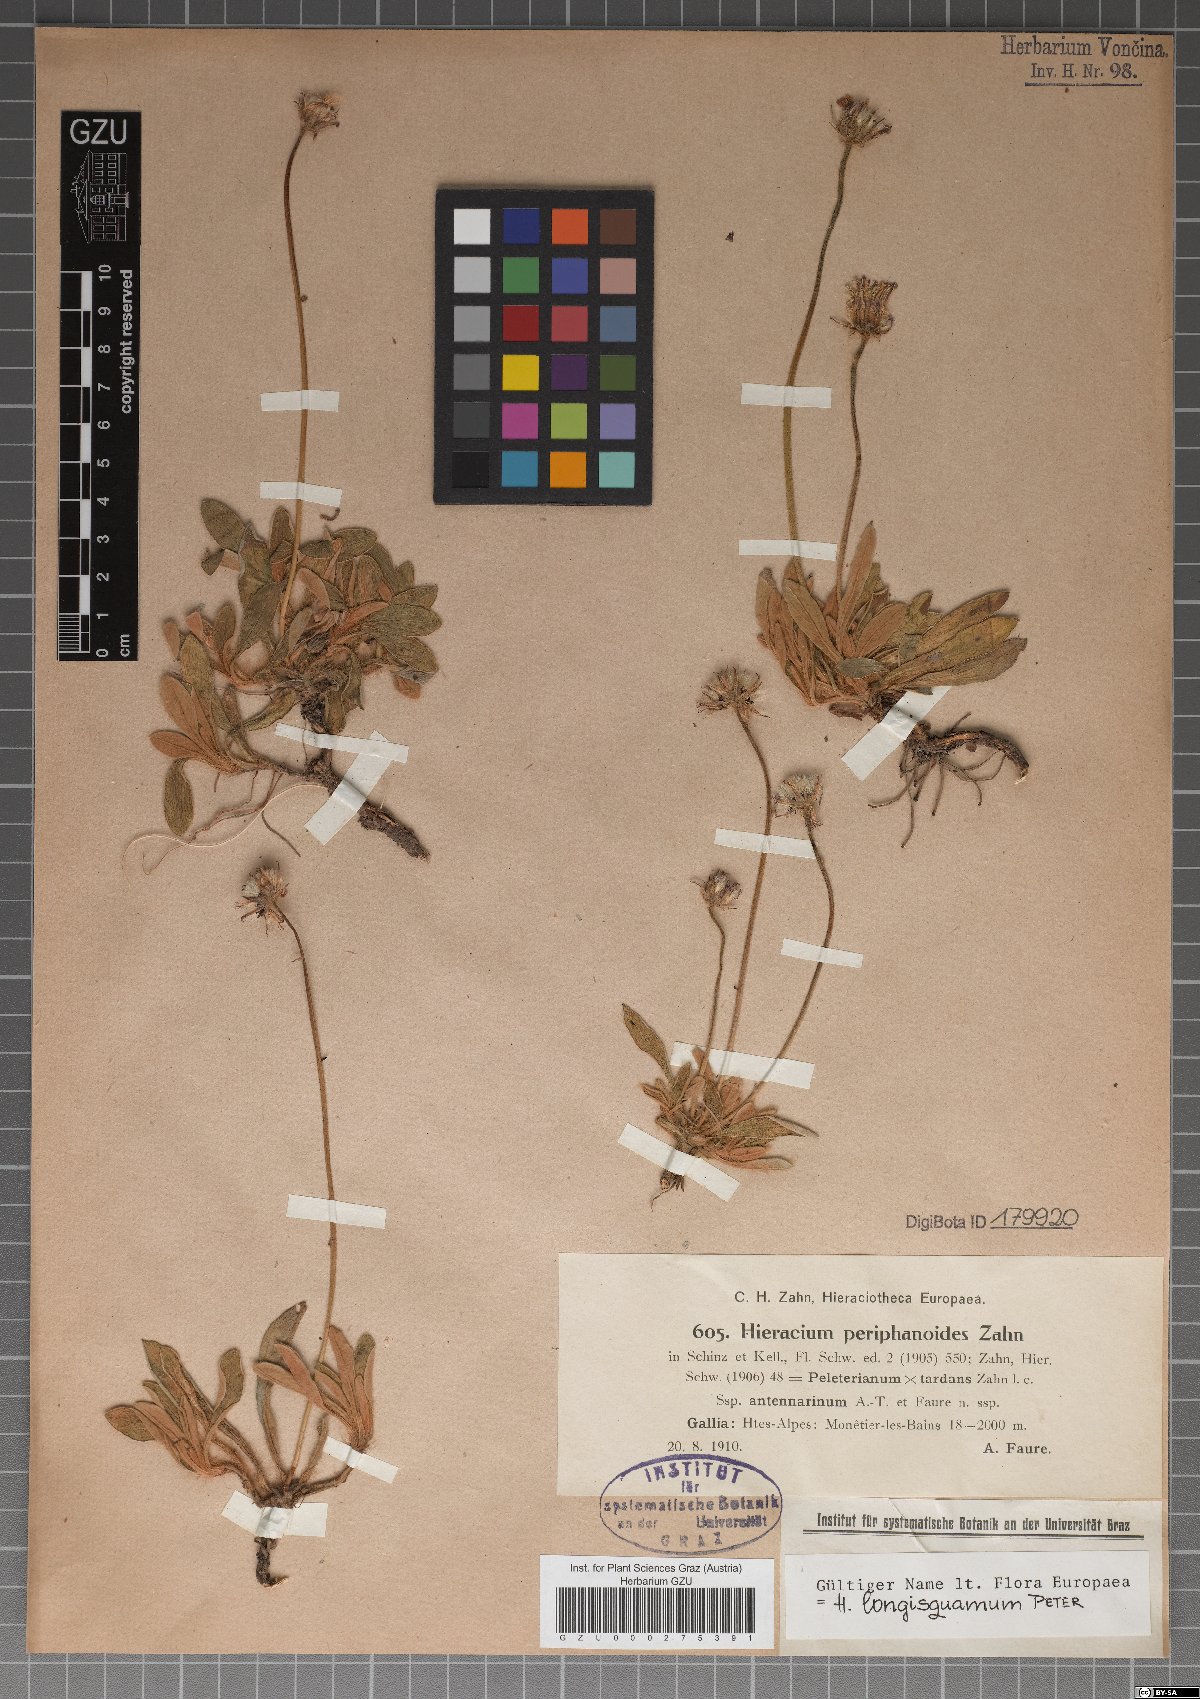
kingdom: Plantae
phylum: Tracheophyta
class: Magnoliopsida
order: Asterales
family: Asteraceae
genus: Pilosella
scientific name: Pilosella periphanoides
